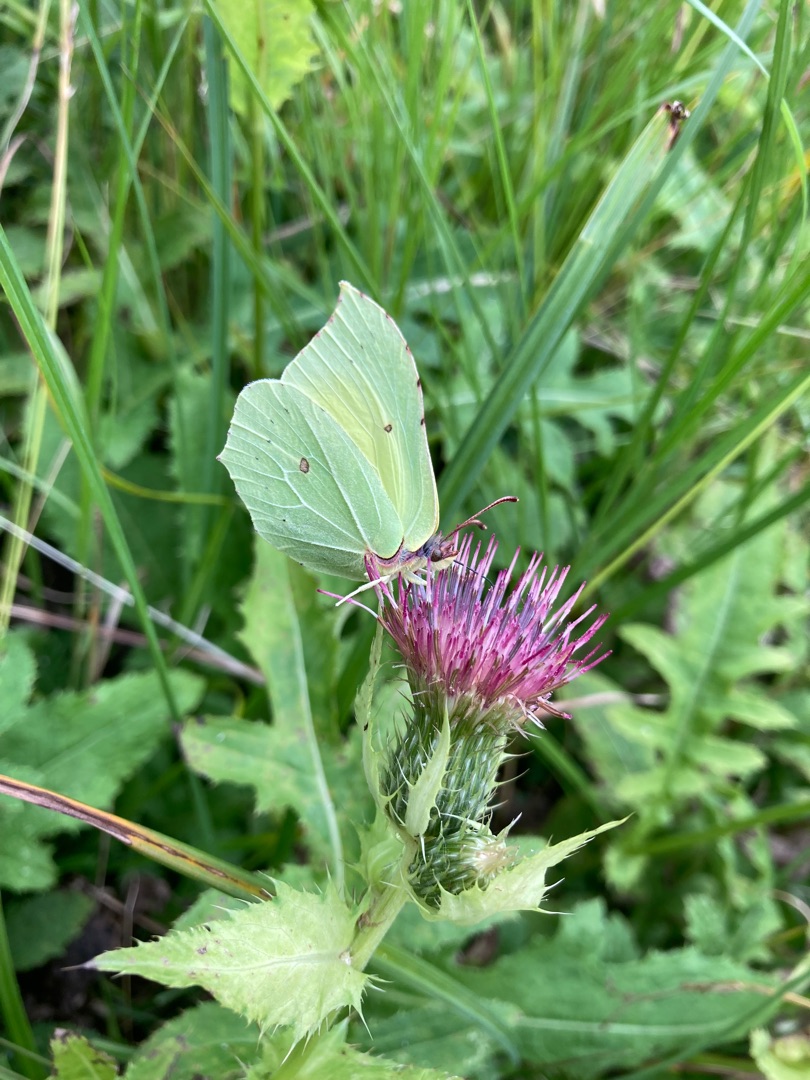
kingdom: Animalia
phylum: Arthropoda
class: Insecta
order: Lepidoptera
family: Pieridae
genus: Gonepteryx
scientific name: Gonepteryx rhamni
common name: Citronsommerfugl
